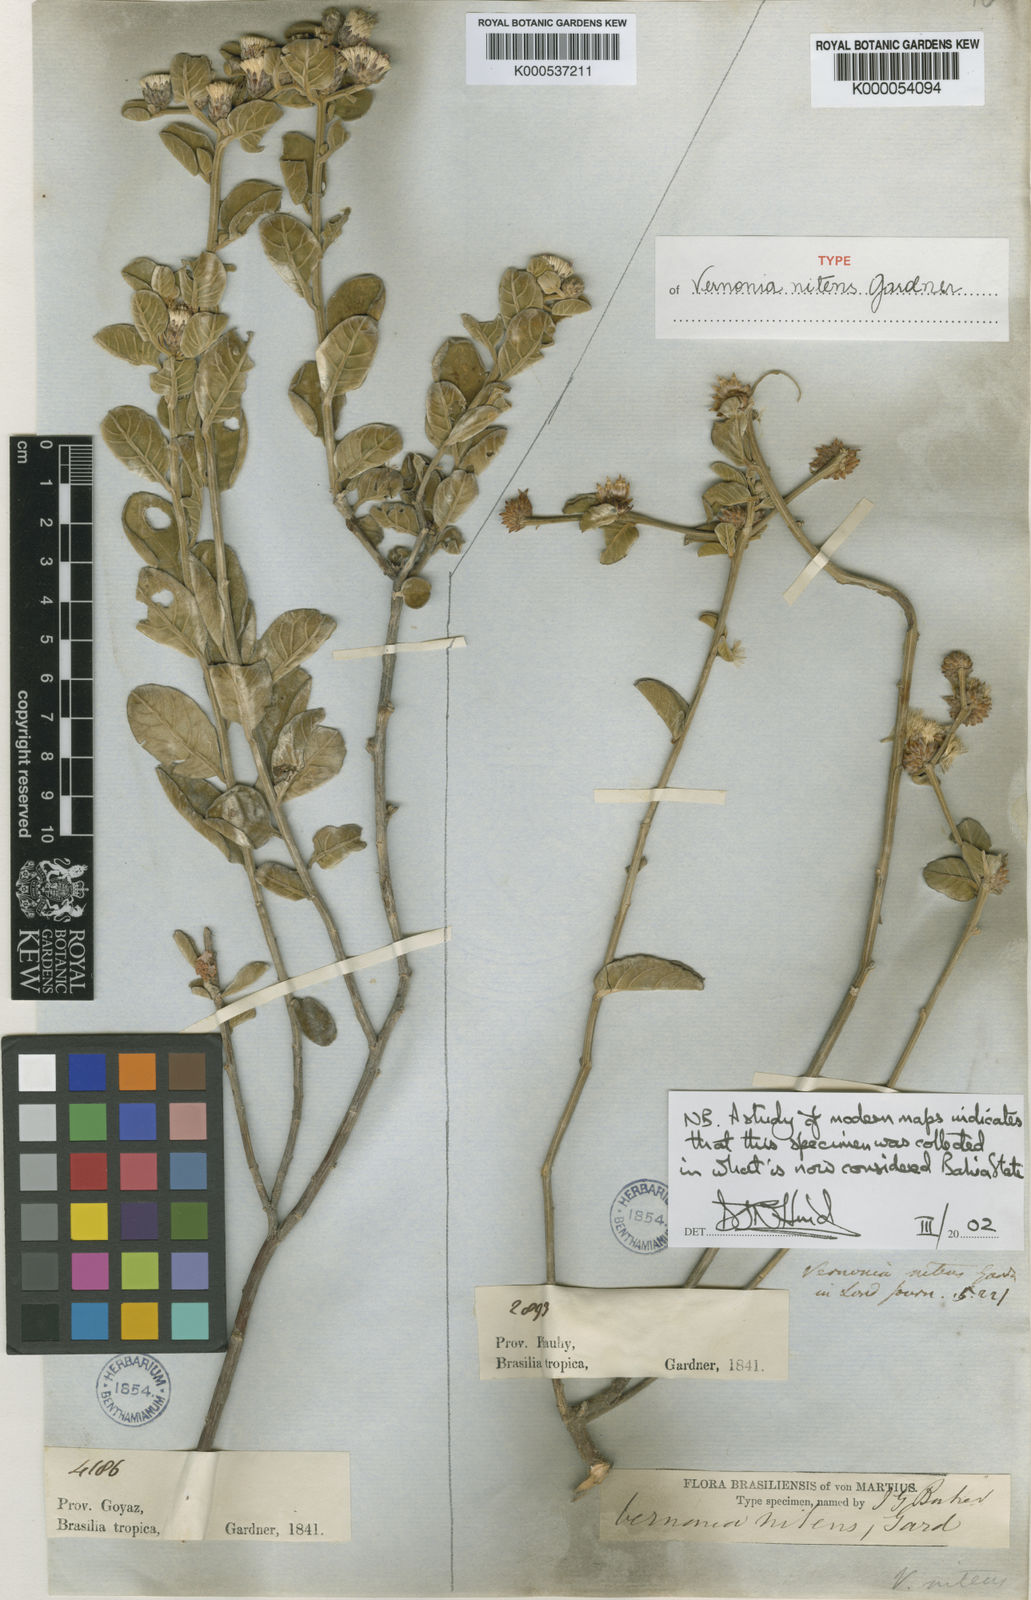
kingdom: Plantae
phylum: Tracheophyta
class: Magnoliopsida
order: Asterales
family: Asteraceae
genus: Lepidaploa
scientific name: Lepidaploa nitens
